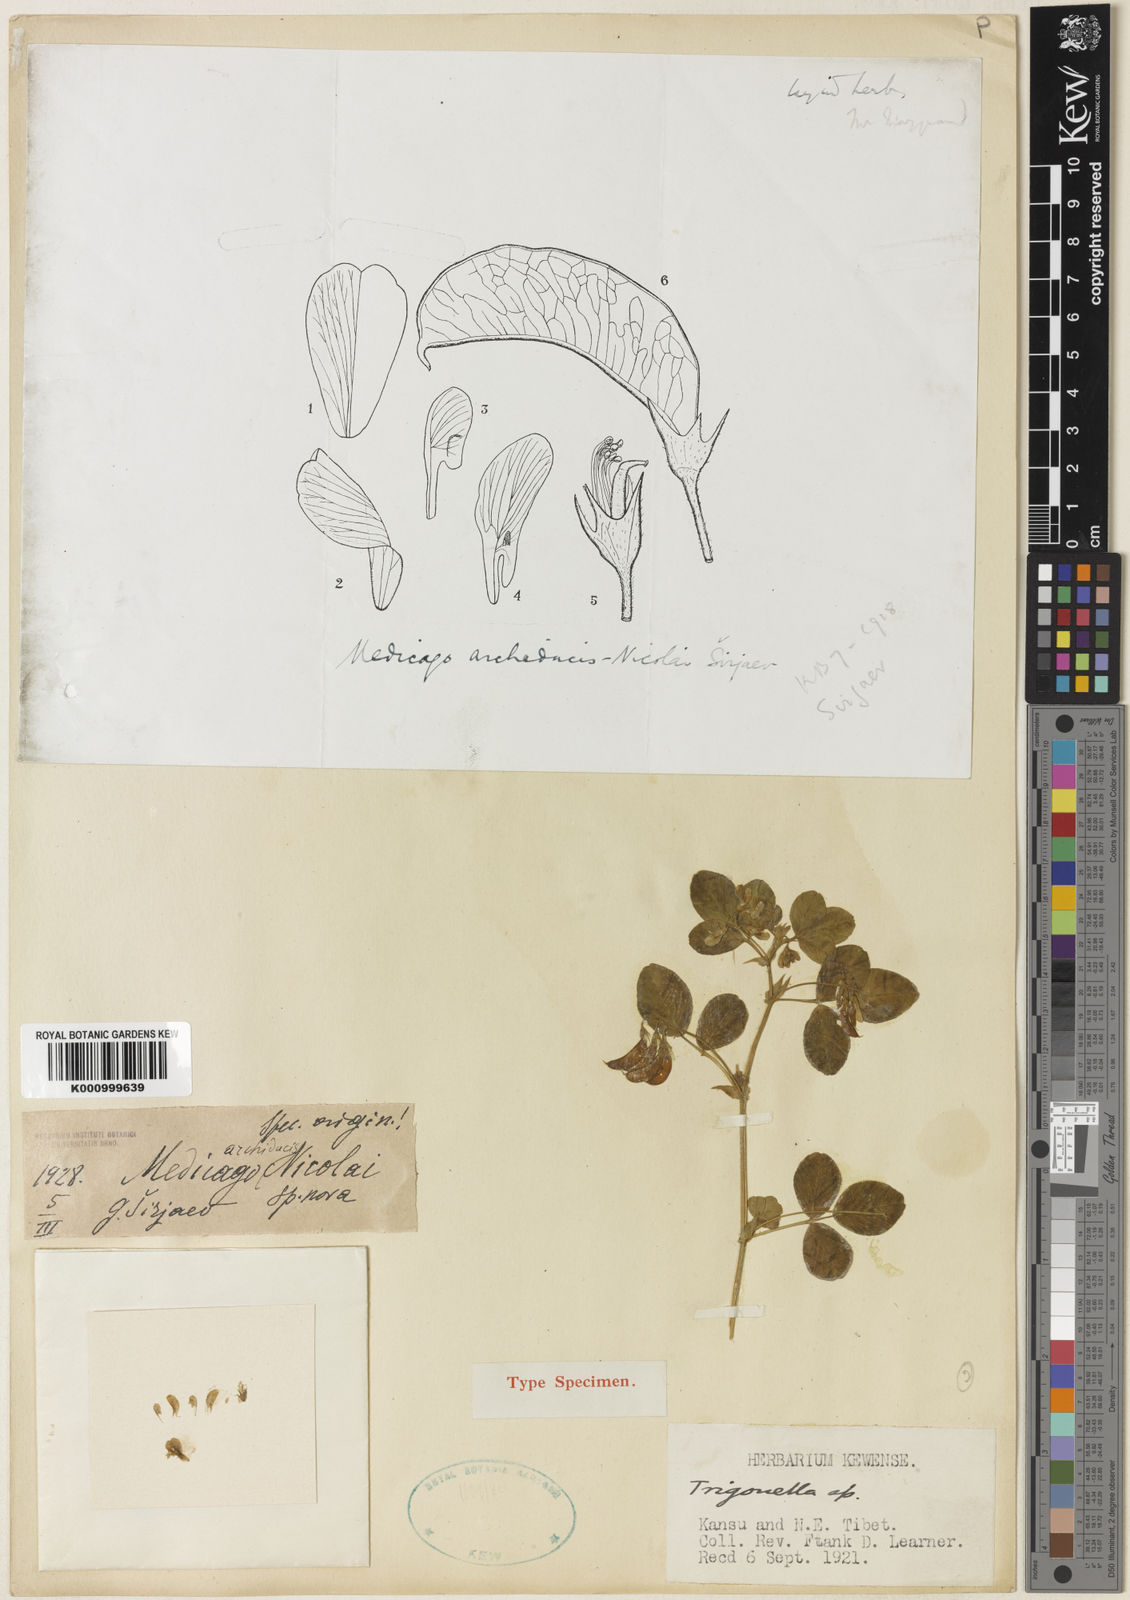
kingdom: Plantae
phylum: Tracheophyta
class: Magnoliopsida
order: Fabales
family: Fabaceae
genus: Medicago
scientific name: Medicago
